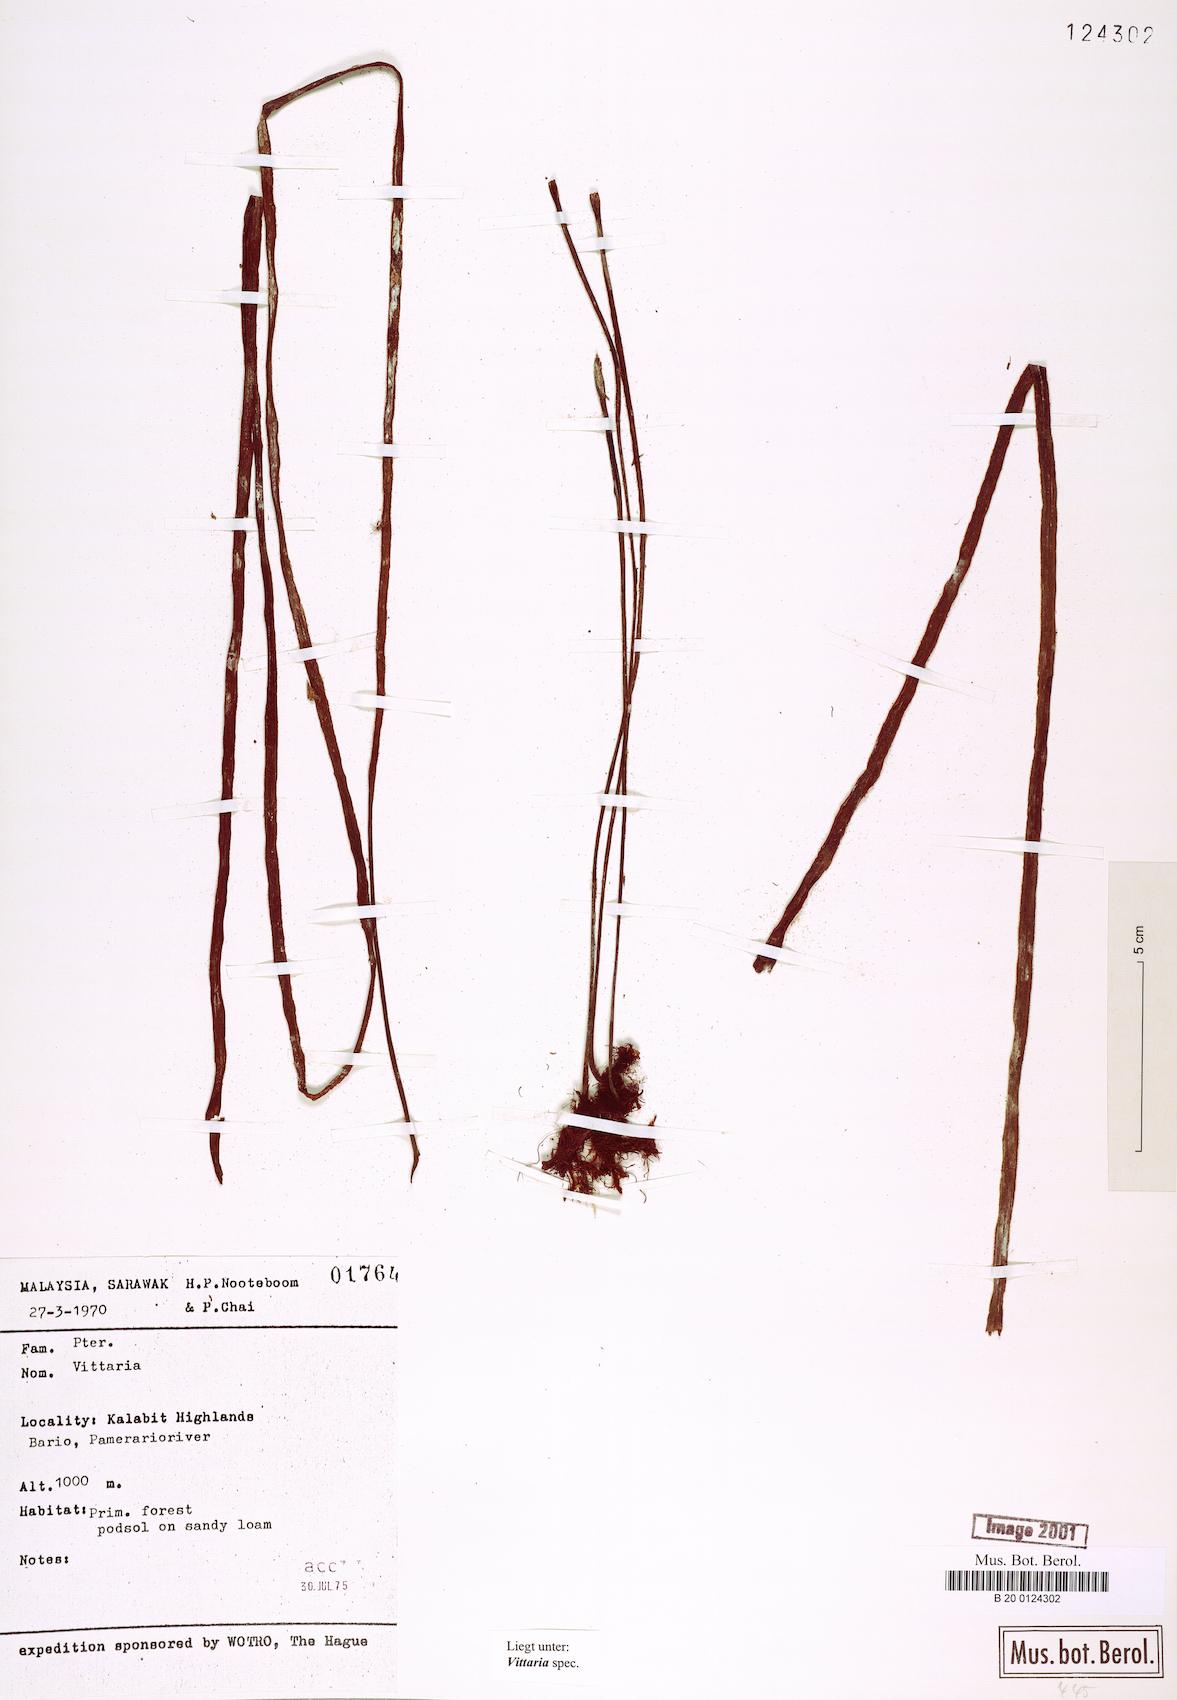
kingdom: Plantae
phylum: Tracheophyta
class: Polypodiopsida
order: Polypodiales
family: Pteridaceae
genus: Vittaria
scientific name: Vittaria
